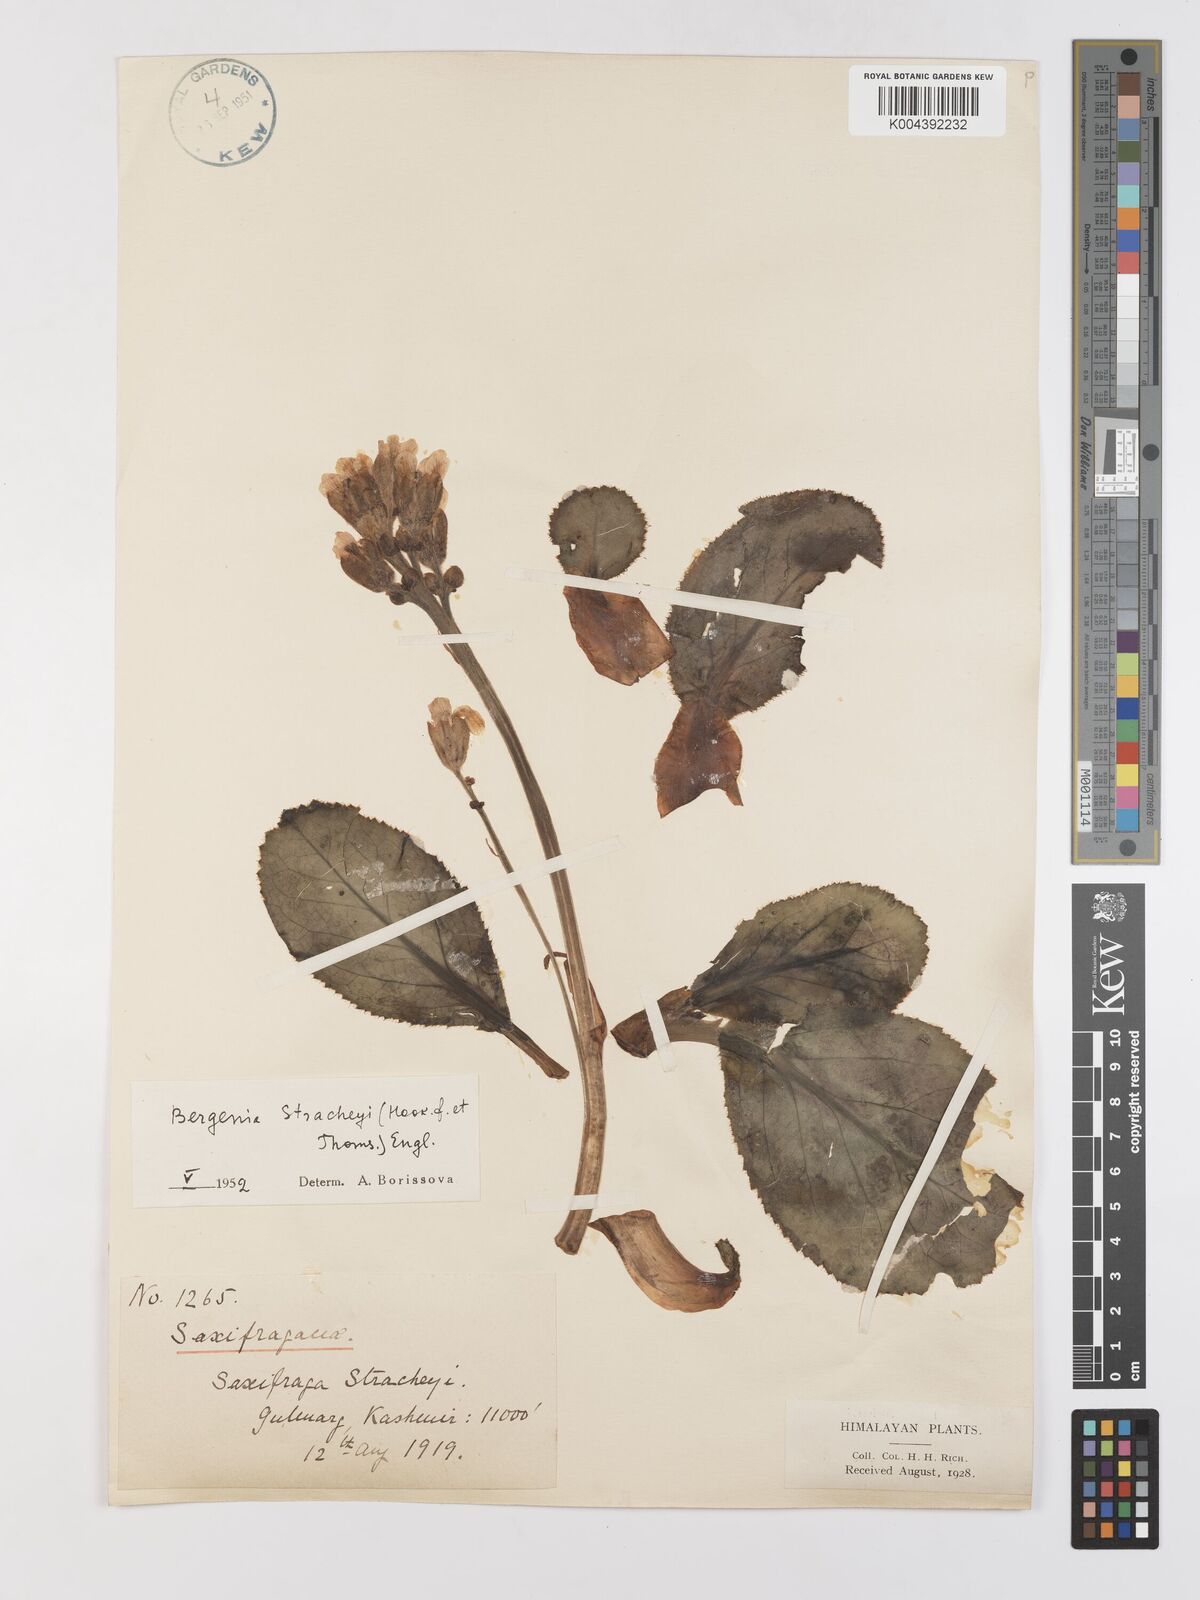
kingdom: Plantae
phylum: Tracheophyta
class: Magnoliopsida
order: Saxifragales
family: Saxifragaceae
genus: Bergenia
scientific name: Bergenia stracheyi
